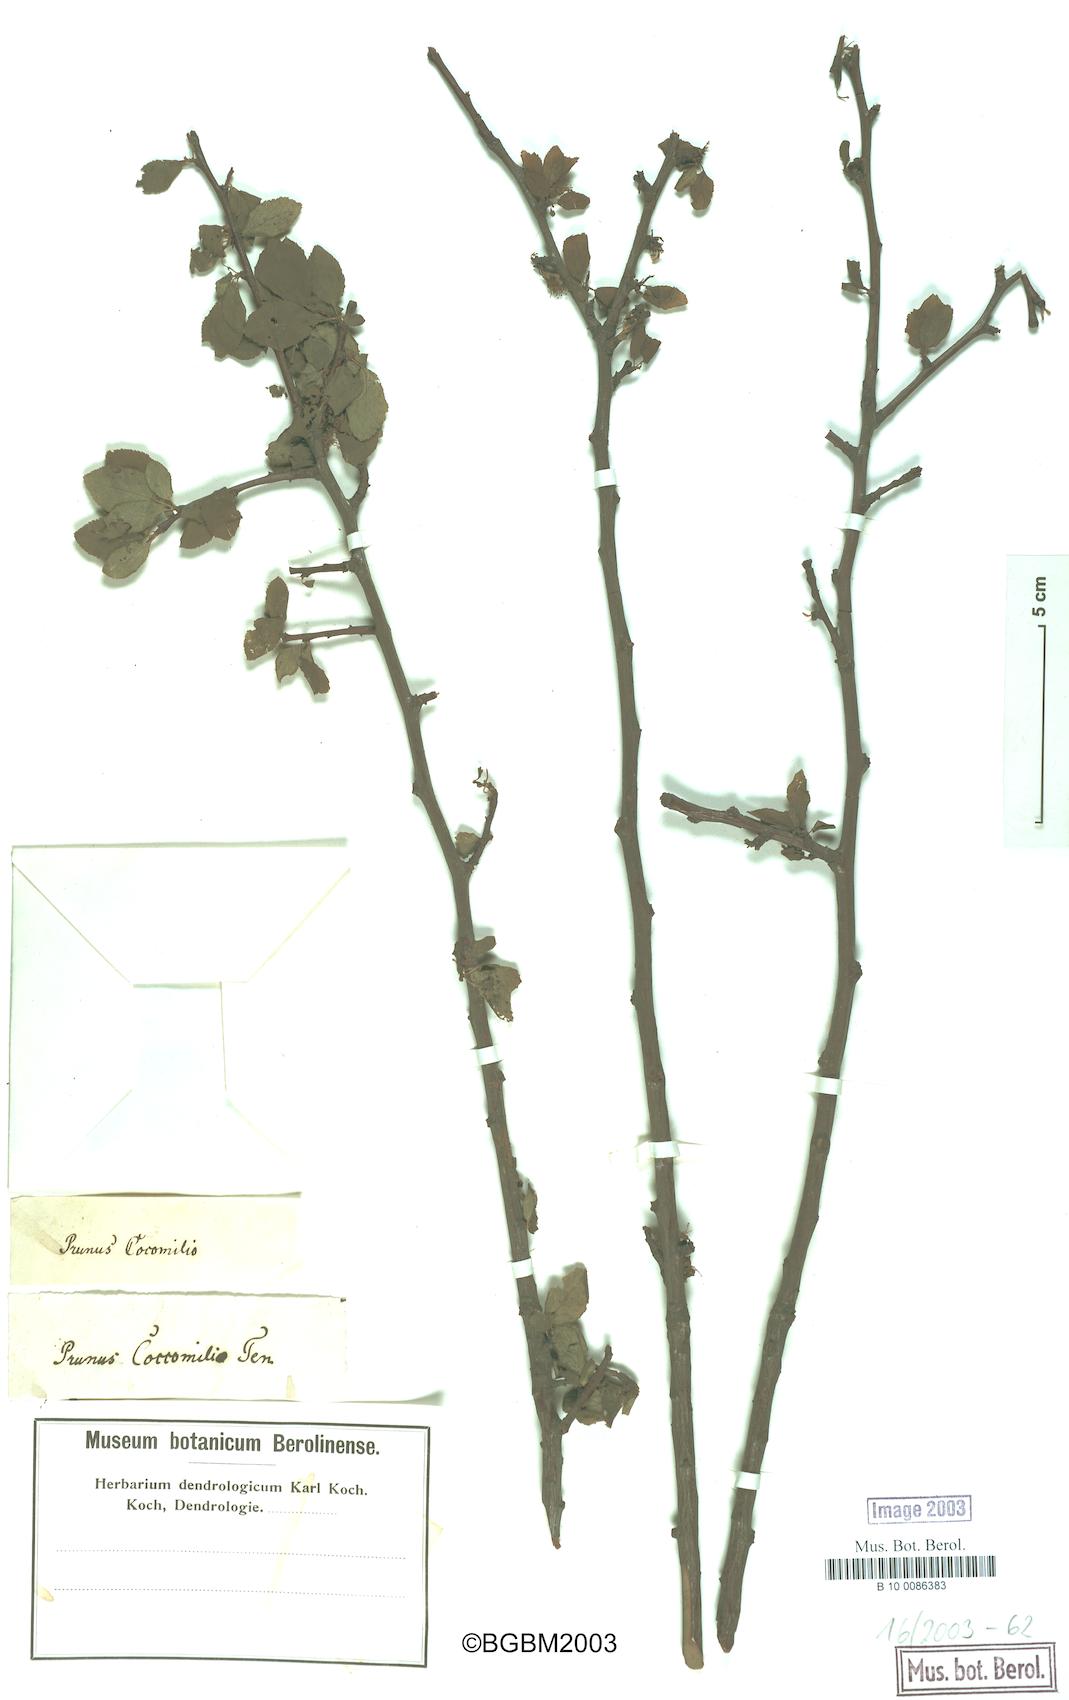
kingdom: Plantae
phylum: Tracheophyta
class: Magnoliopsida
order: Rosales
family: Rosaceae
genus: Prunus
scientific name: Prunus cocomilia
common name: Italian plum
